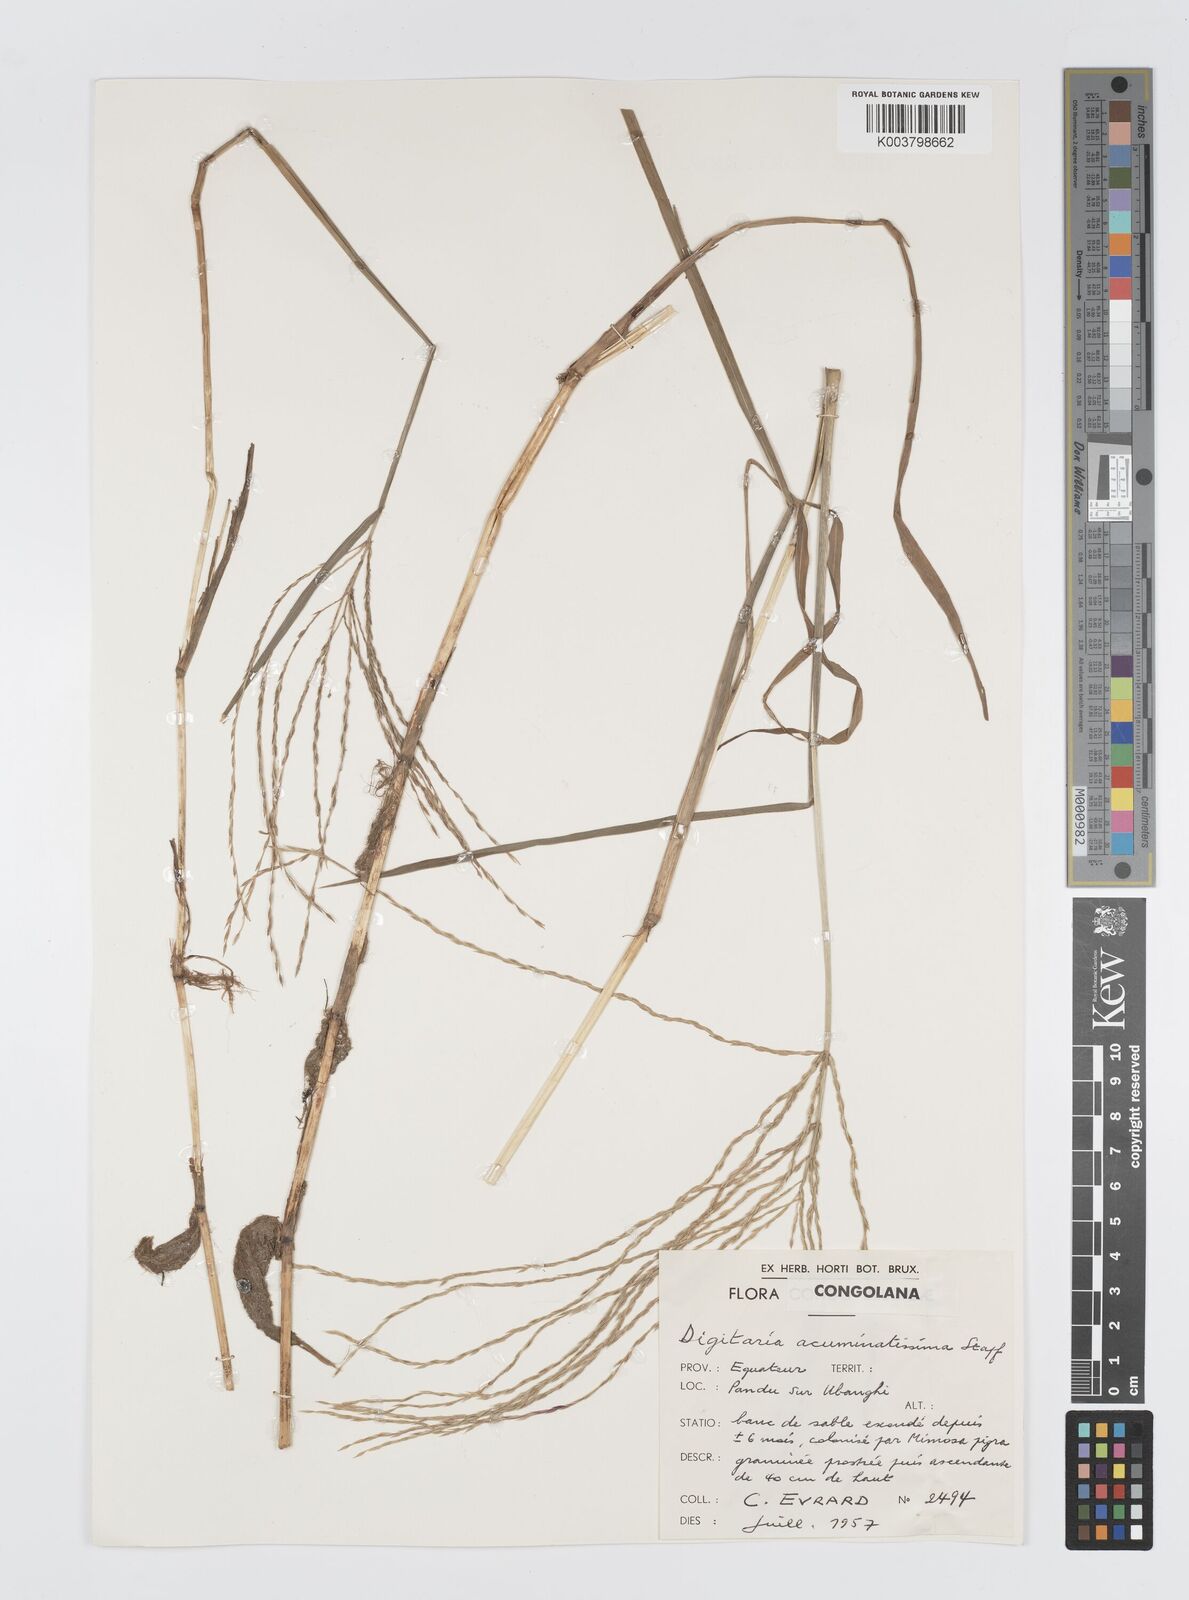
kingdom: Plantae
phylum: Tracheophyta
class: Liliopsida
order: Poales
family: Poaceae
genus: Digitaria
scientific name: Digitaria acuminatissima
